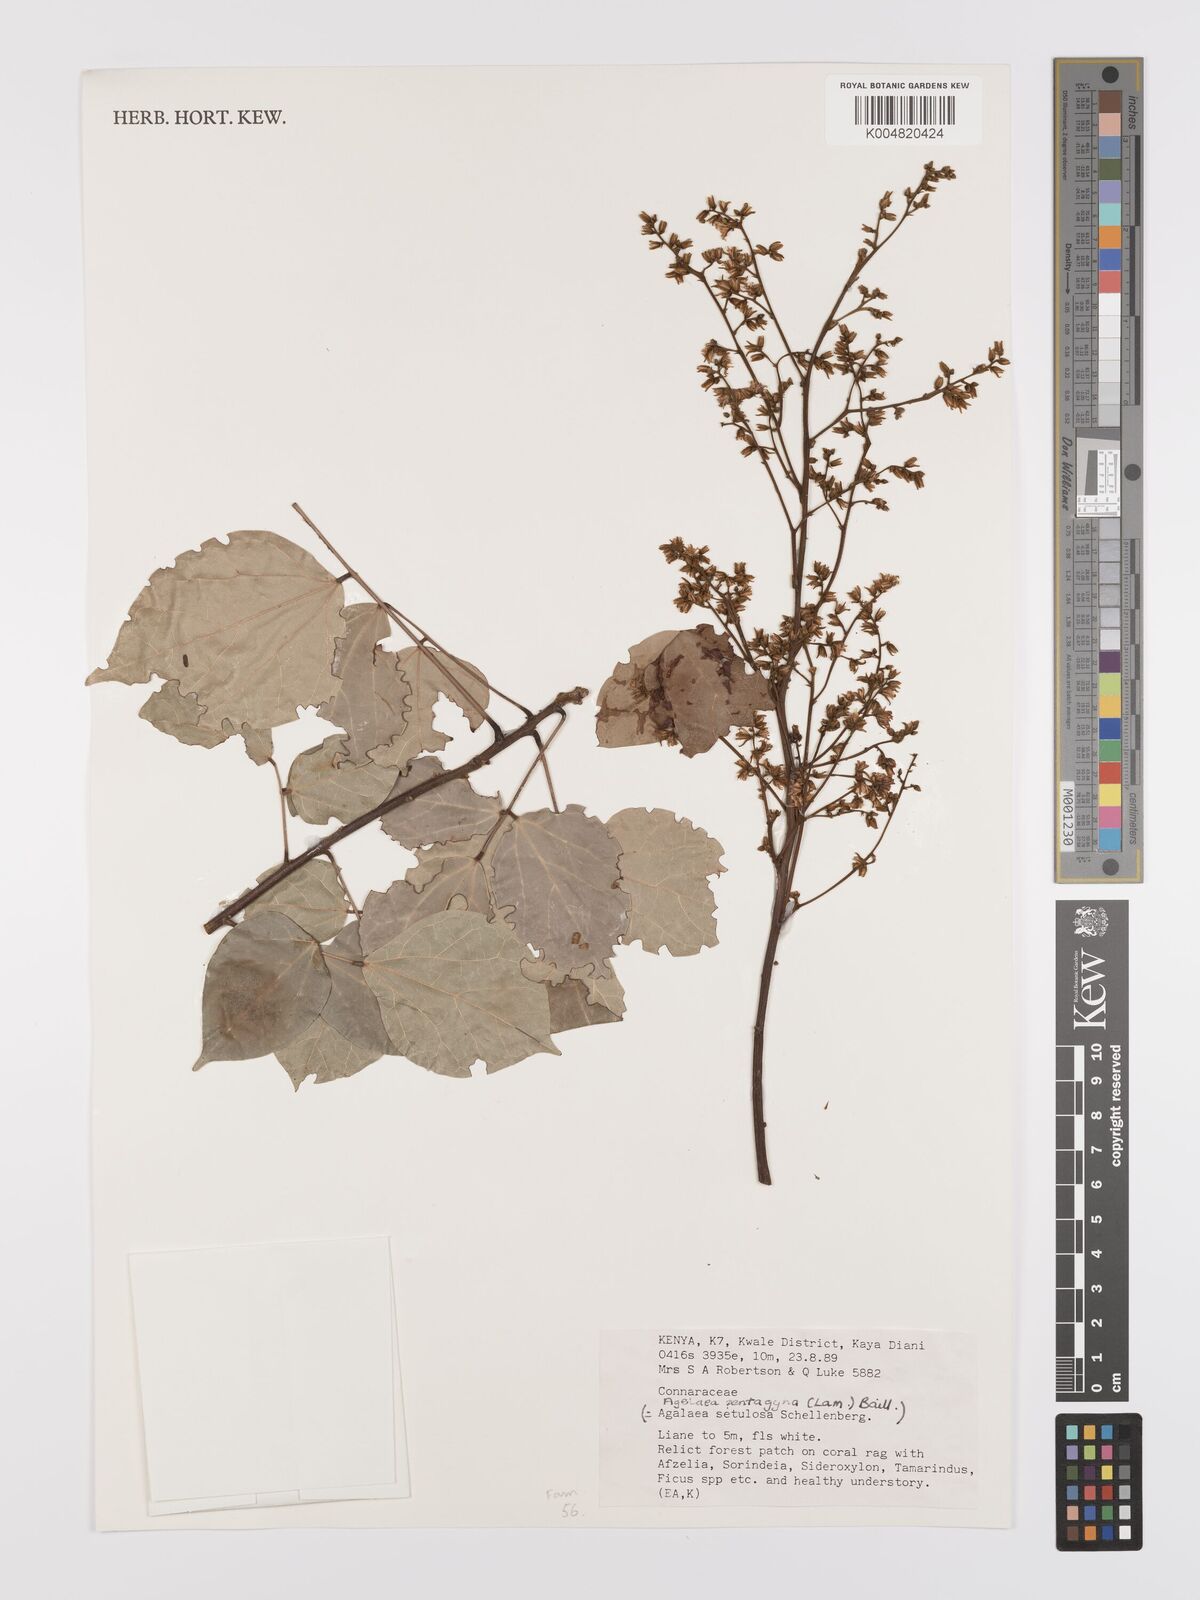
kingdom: Plantae
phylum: Tracheophyta
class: Magnoliopsida
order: Oxalidales
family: Connaraceae
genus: Agelaea
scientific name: Agelaea pentagyna
